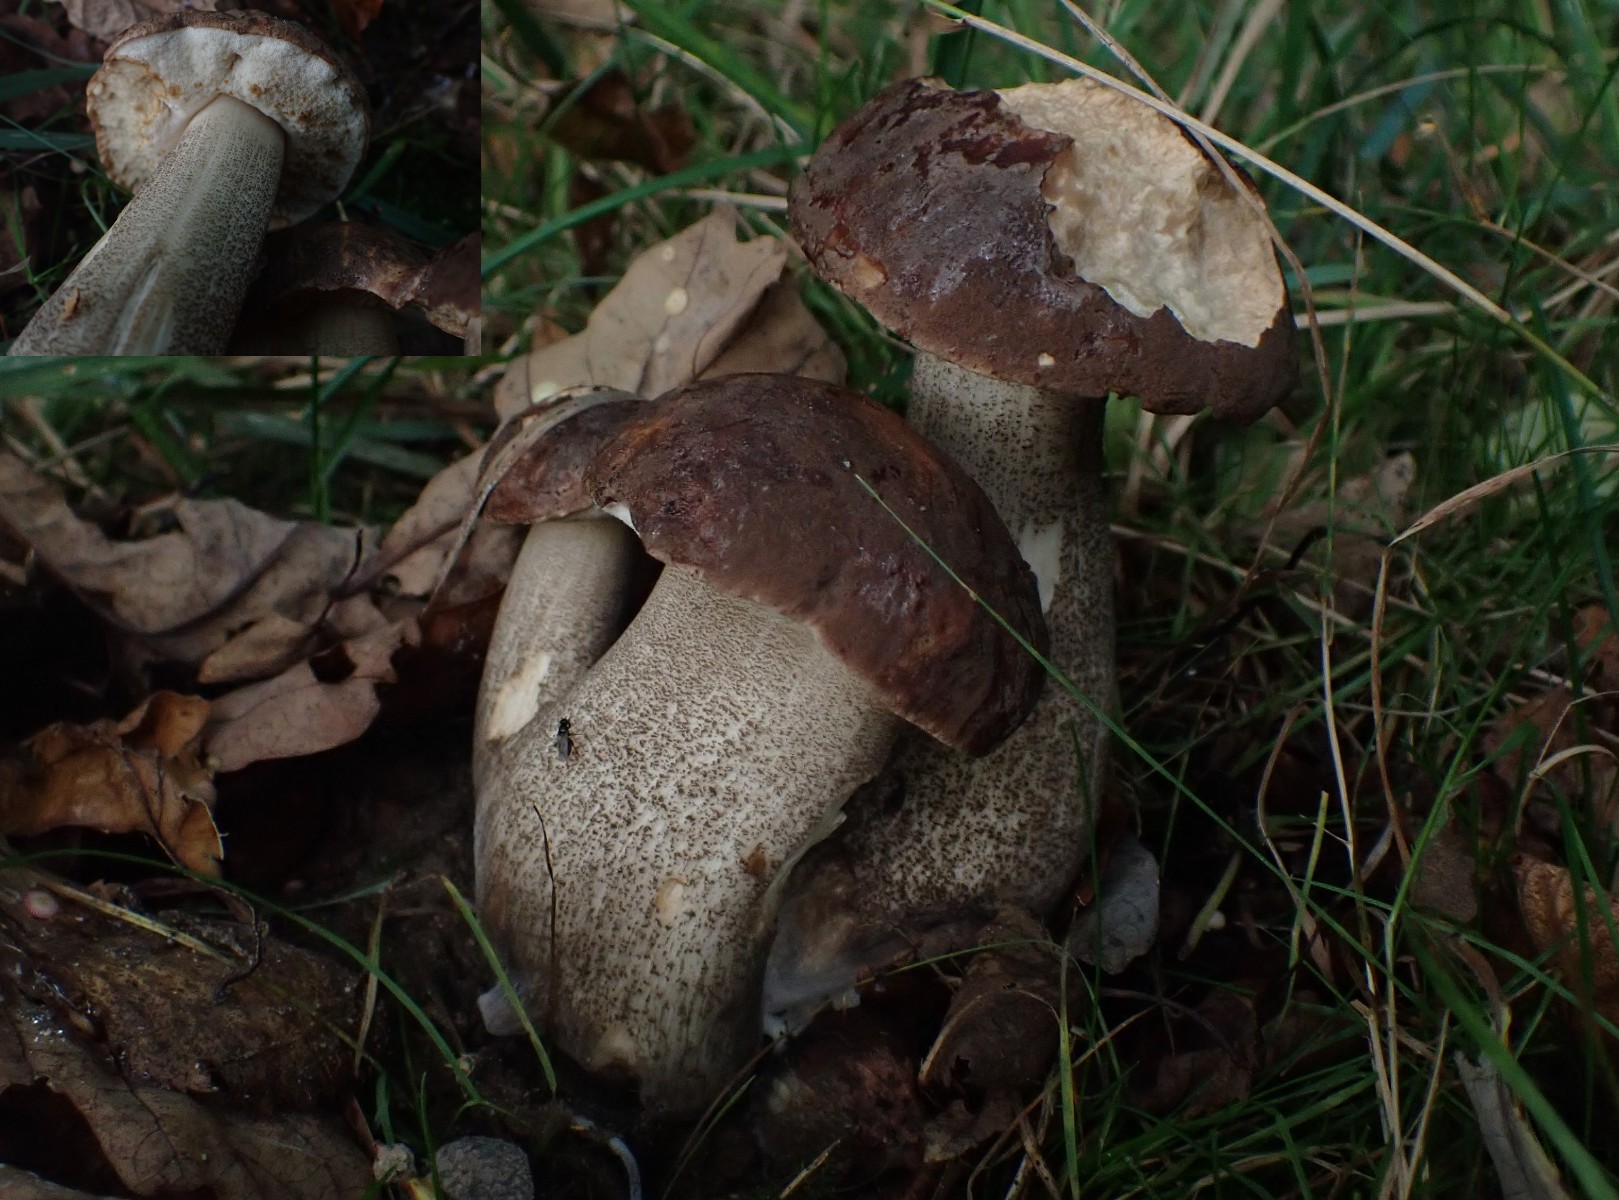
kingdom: Fungi
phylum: Basidiomycota
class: Agaricomycetes
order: Boletales
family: Boletaceae
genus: Leccinum
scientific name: Leccinum scabrum
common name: brun skælrørhat
